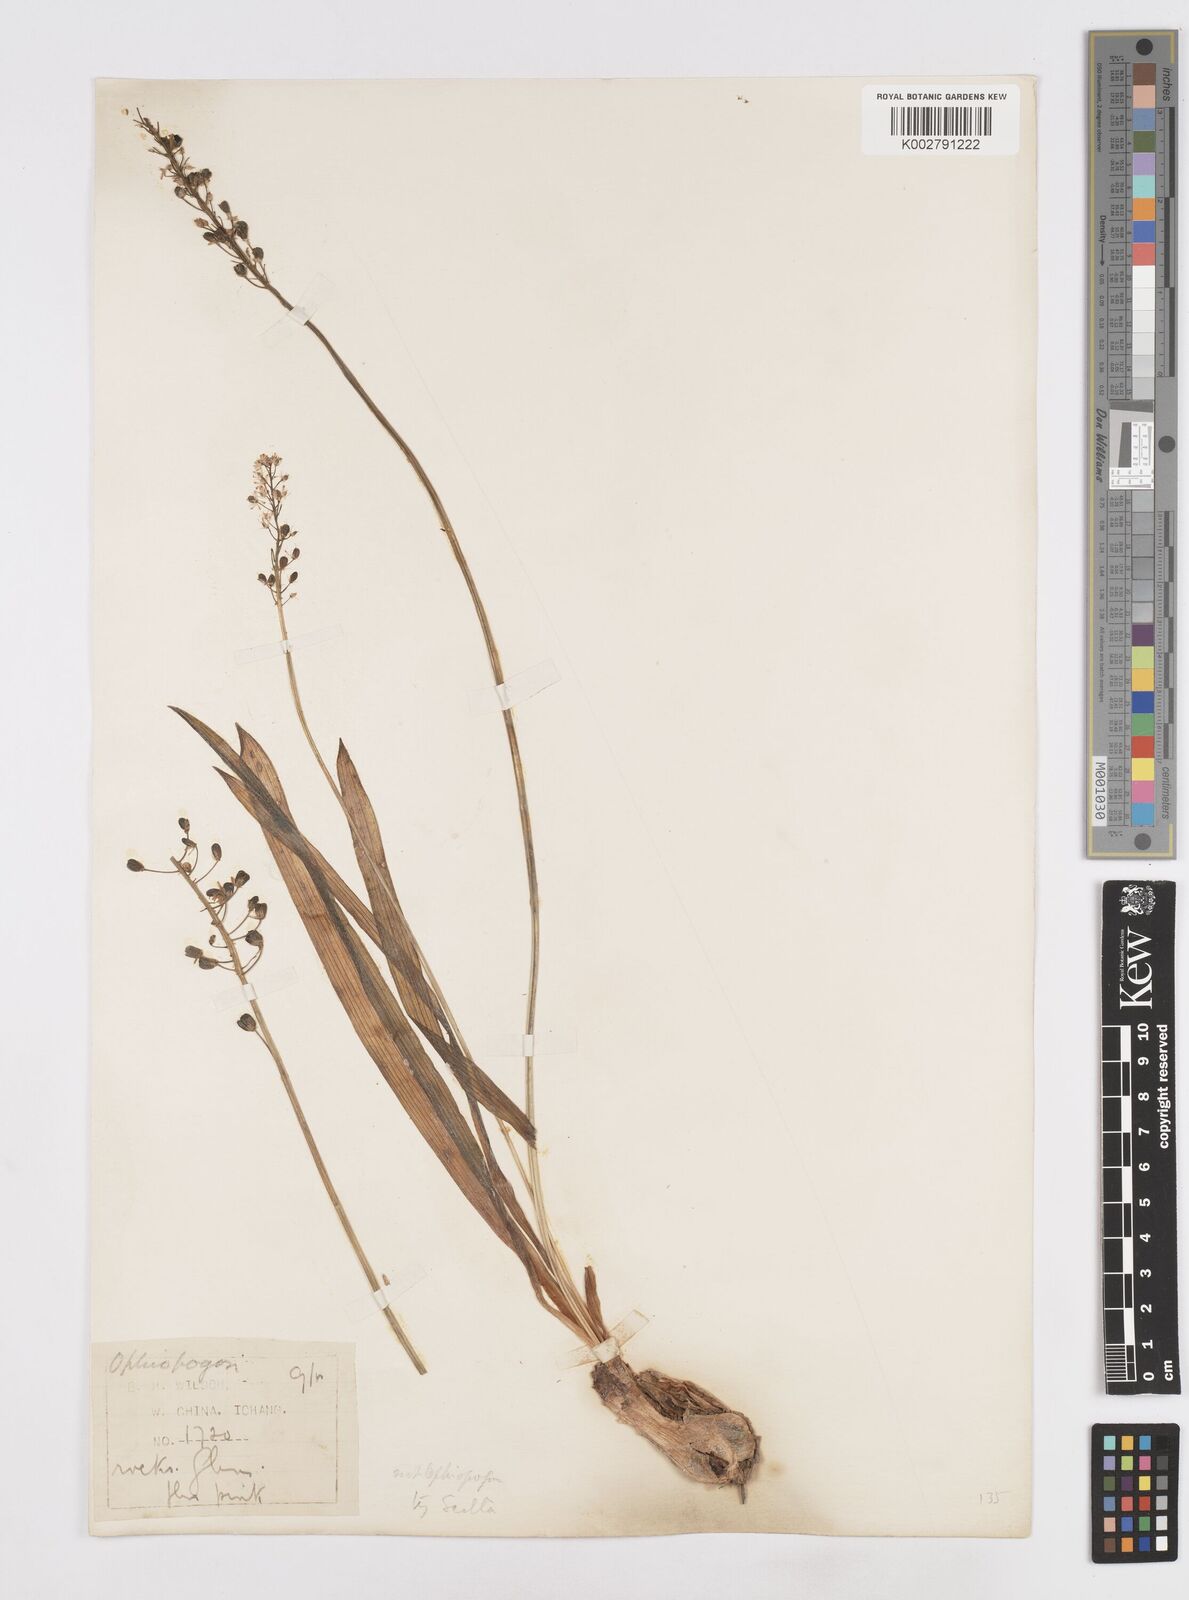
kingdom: Plantae
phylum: Tracheophyta
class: Liliopsida
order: Liliales
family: Melanthiaceae
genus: Helonias
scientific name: Helonias breviscapa
